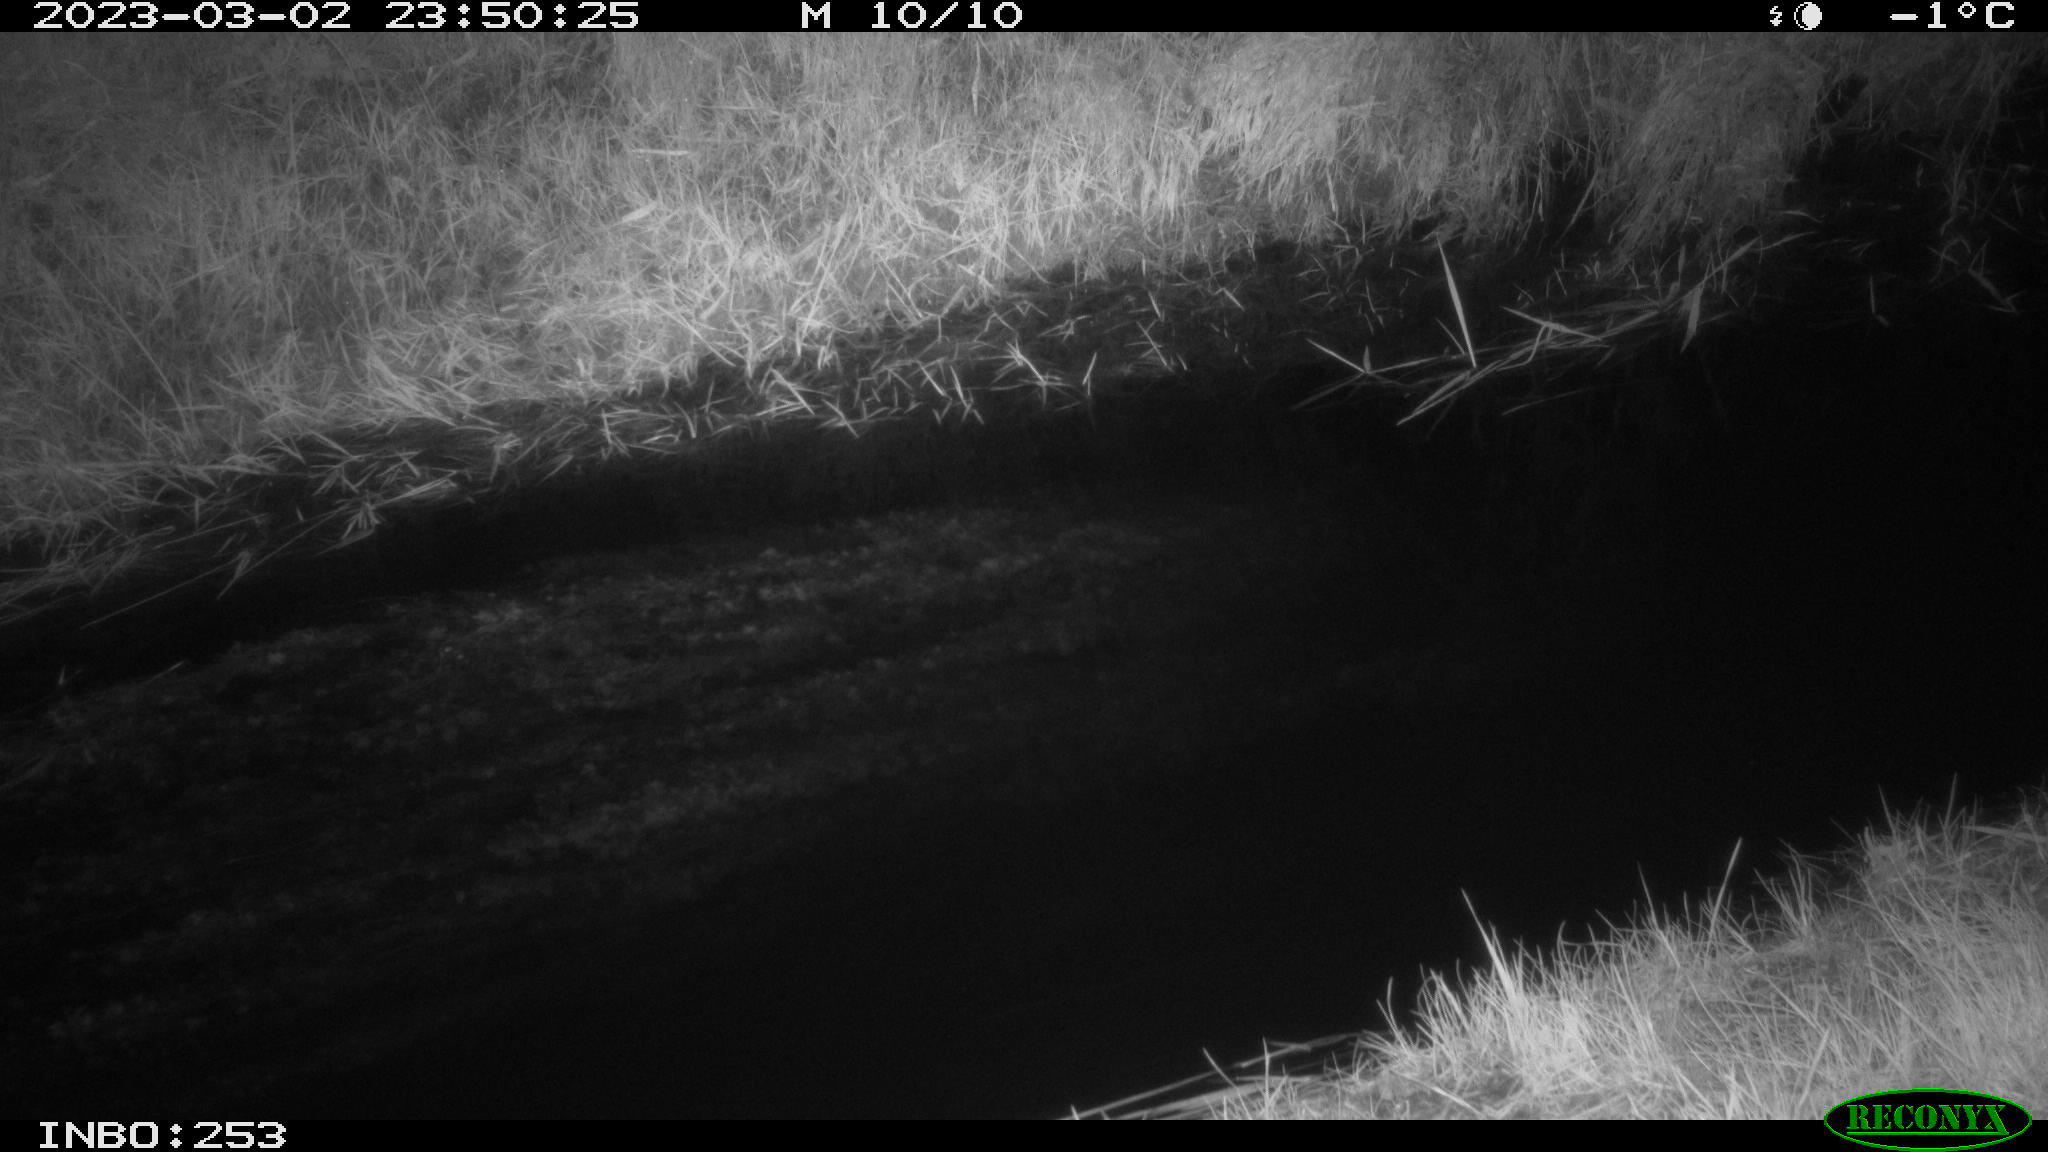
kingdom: Animalia
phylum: Chordata
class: Aves
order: Anseriformes
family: Anatidae
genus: Anas
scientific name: Anas
